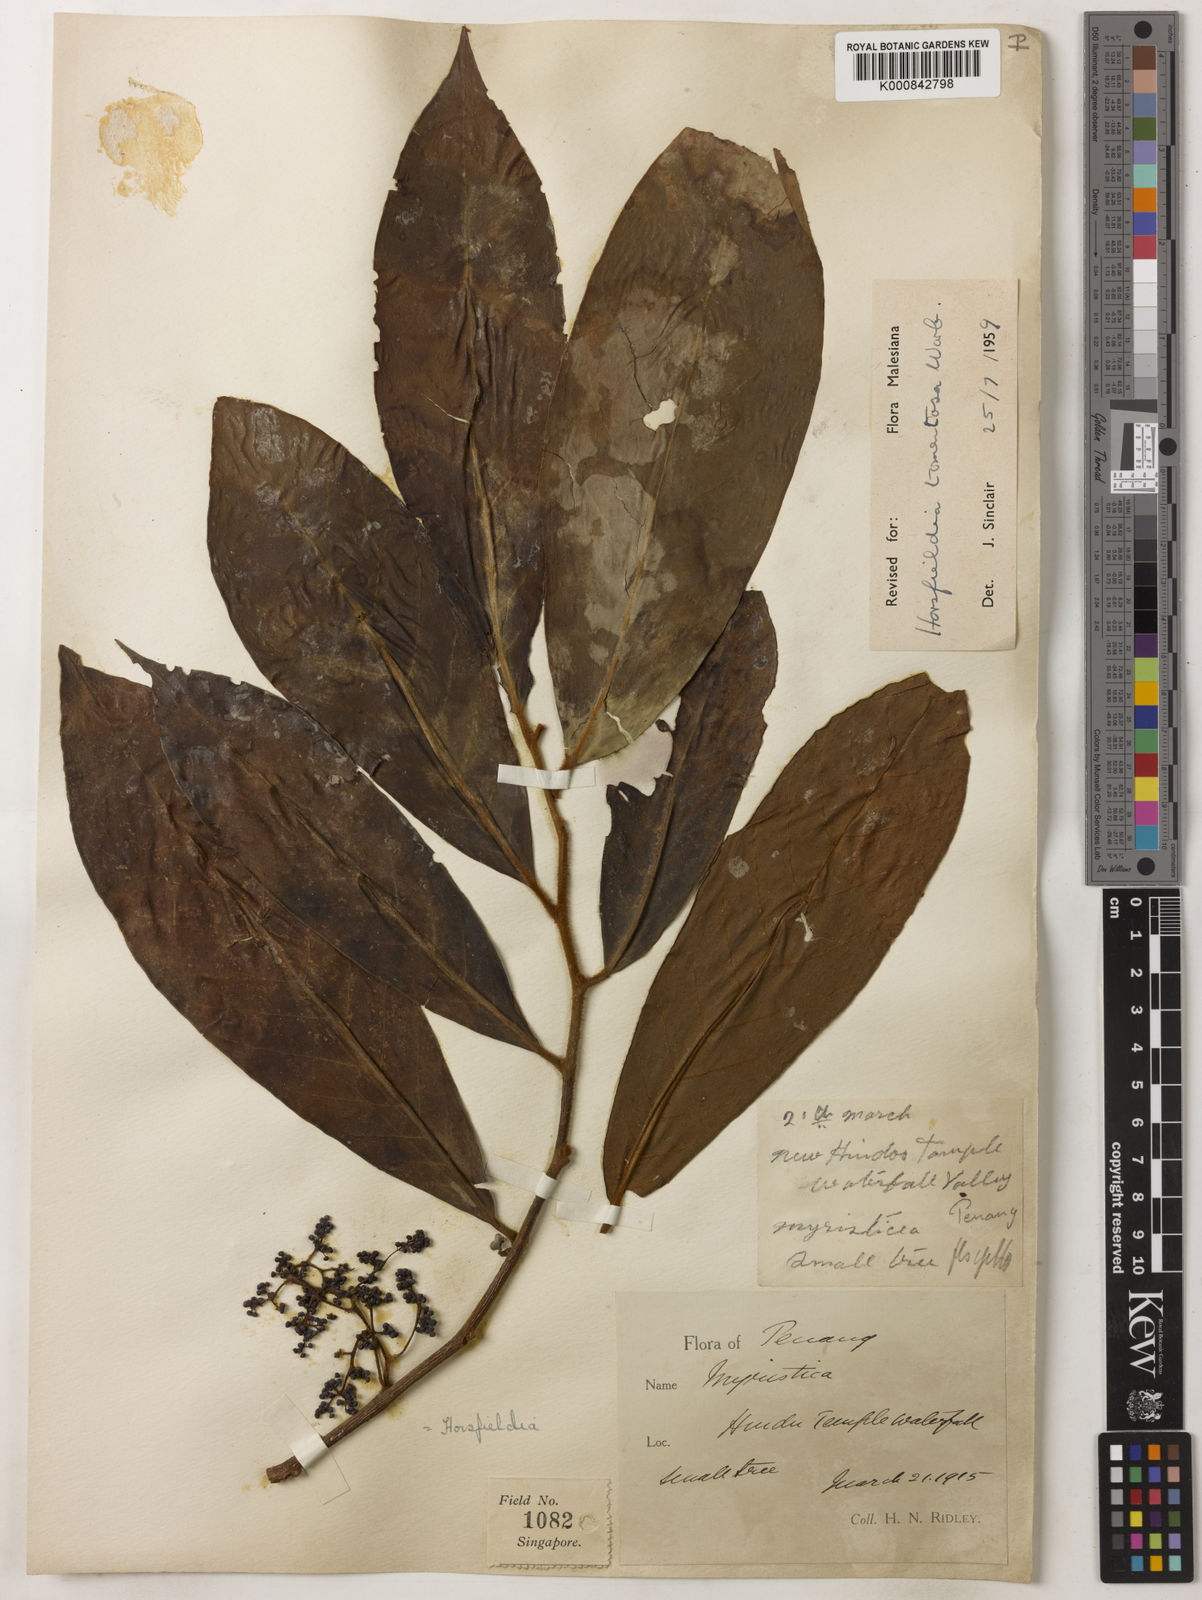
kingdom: Plantae
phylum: Tracheophyta
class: Magnoliopsida
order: Magnoliales
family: Myristicaceae
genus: Horsfieldia
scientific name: Horsfieldia tomentosa
